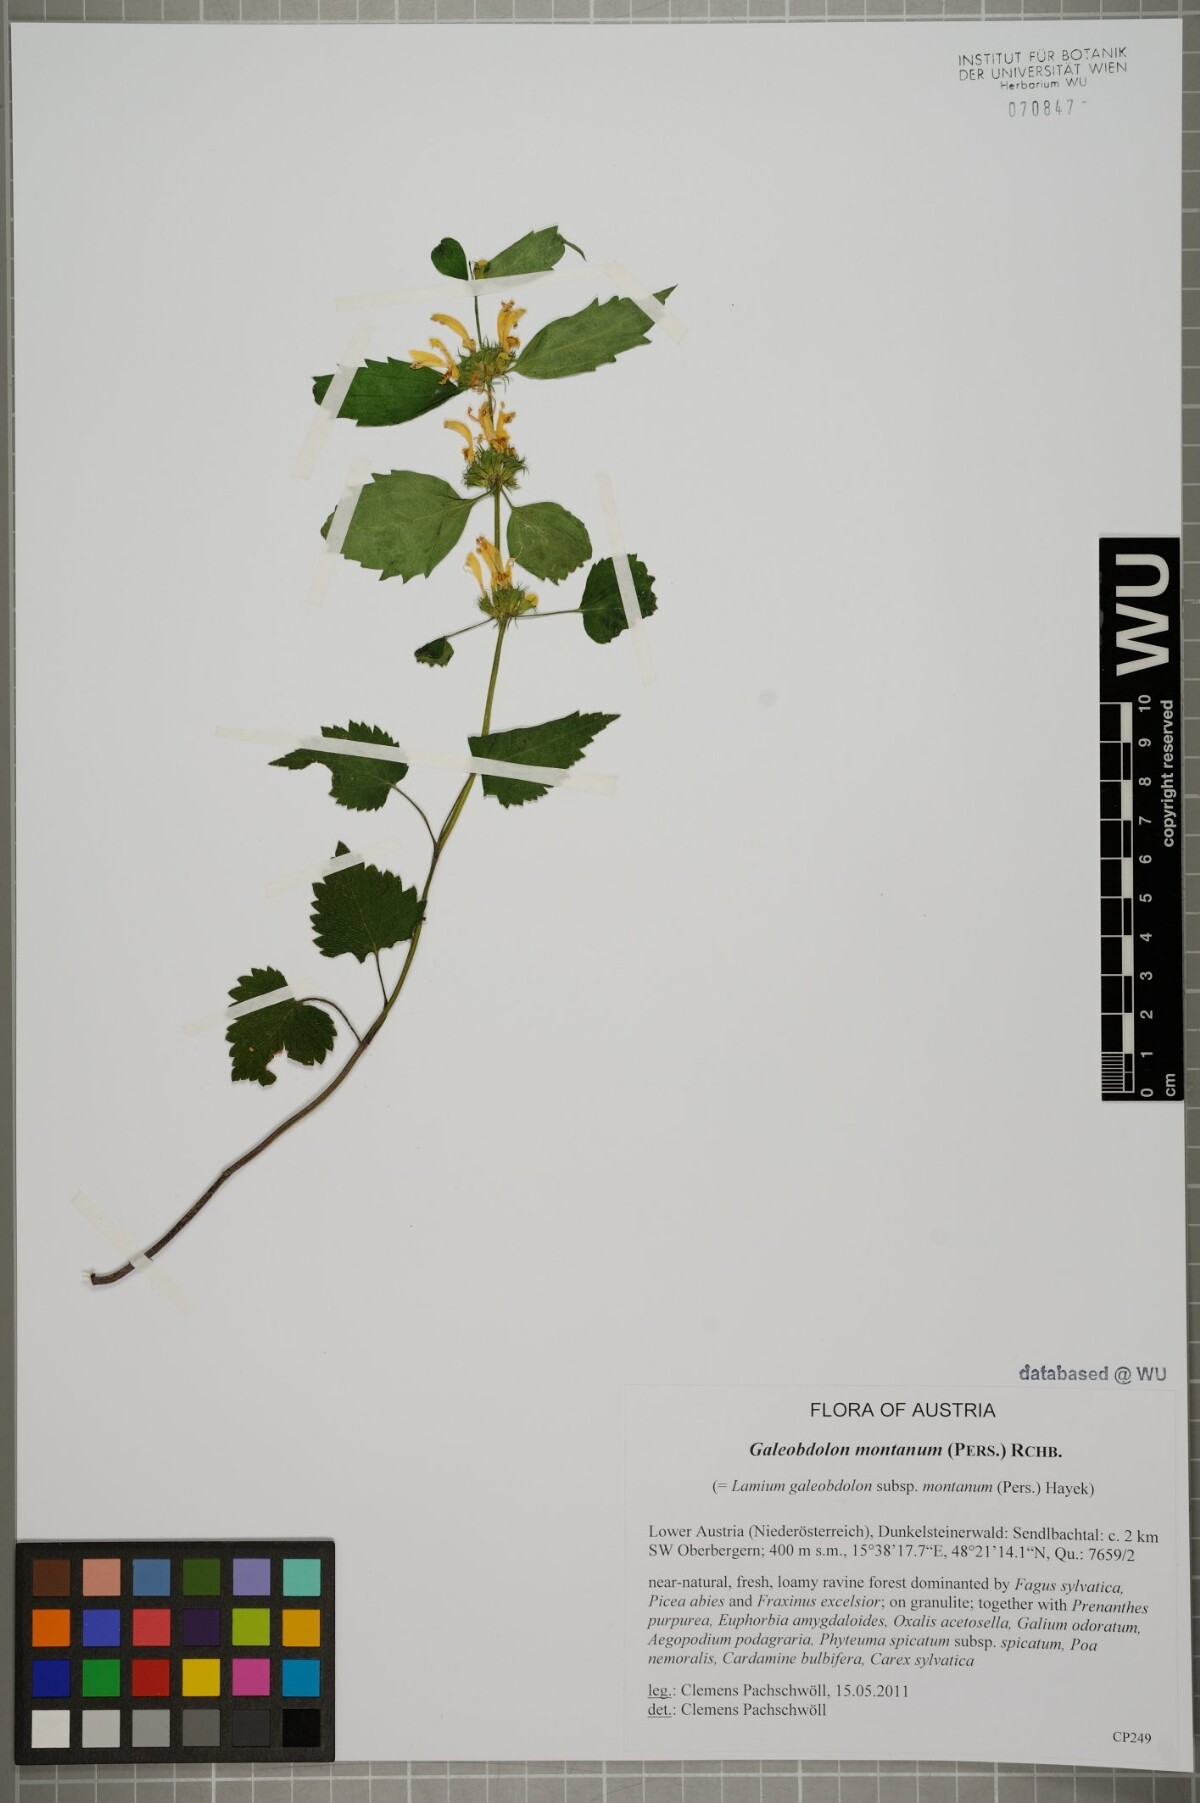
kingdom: Plantae
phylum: Tracheophyta
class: Magnoliopsida
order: Lamiales
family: Lamiaceae
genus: Lamium
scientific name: Lamium galeobdolon
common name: Yellow archangel
